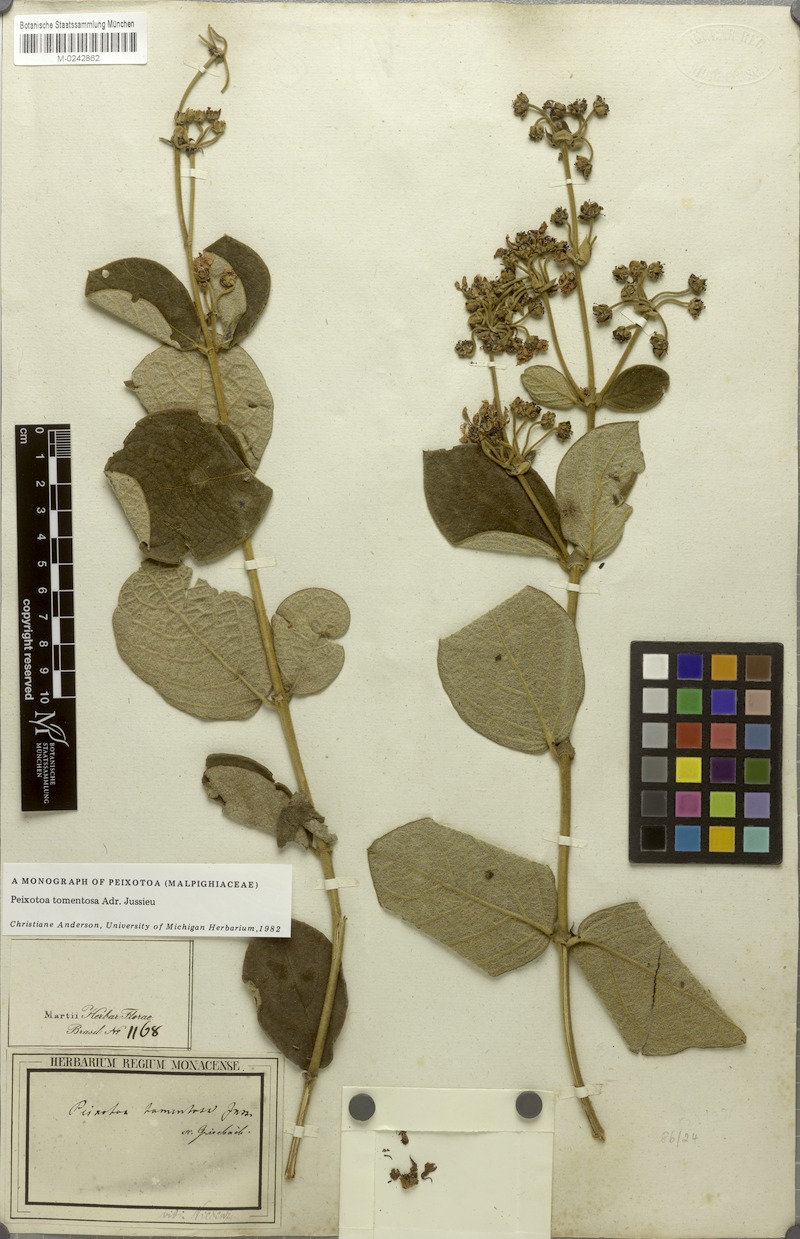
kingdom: Plantae
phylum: Tracheophyta
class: Magnoliopsida
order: Malpighiales
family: Malpighiaceae
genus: Peixotoa
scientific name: Peixotoa tomentosa
